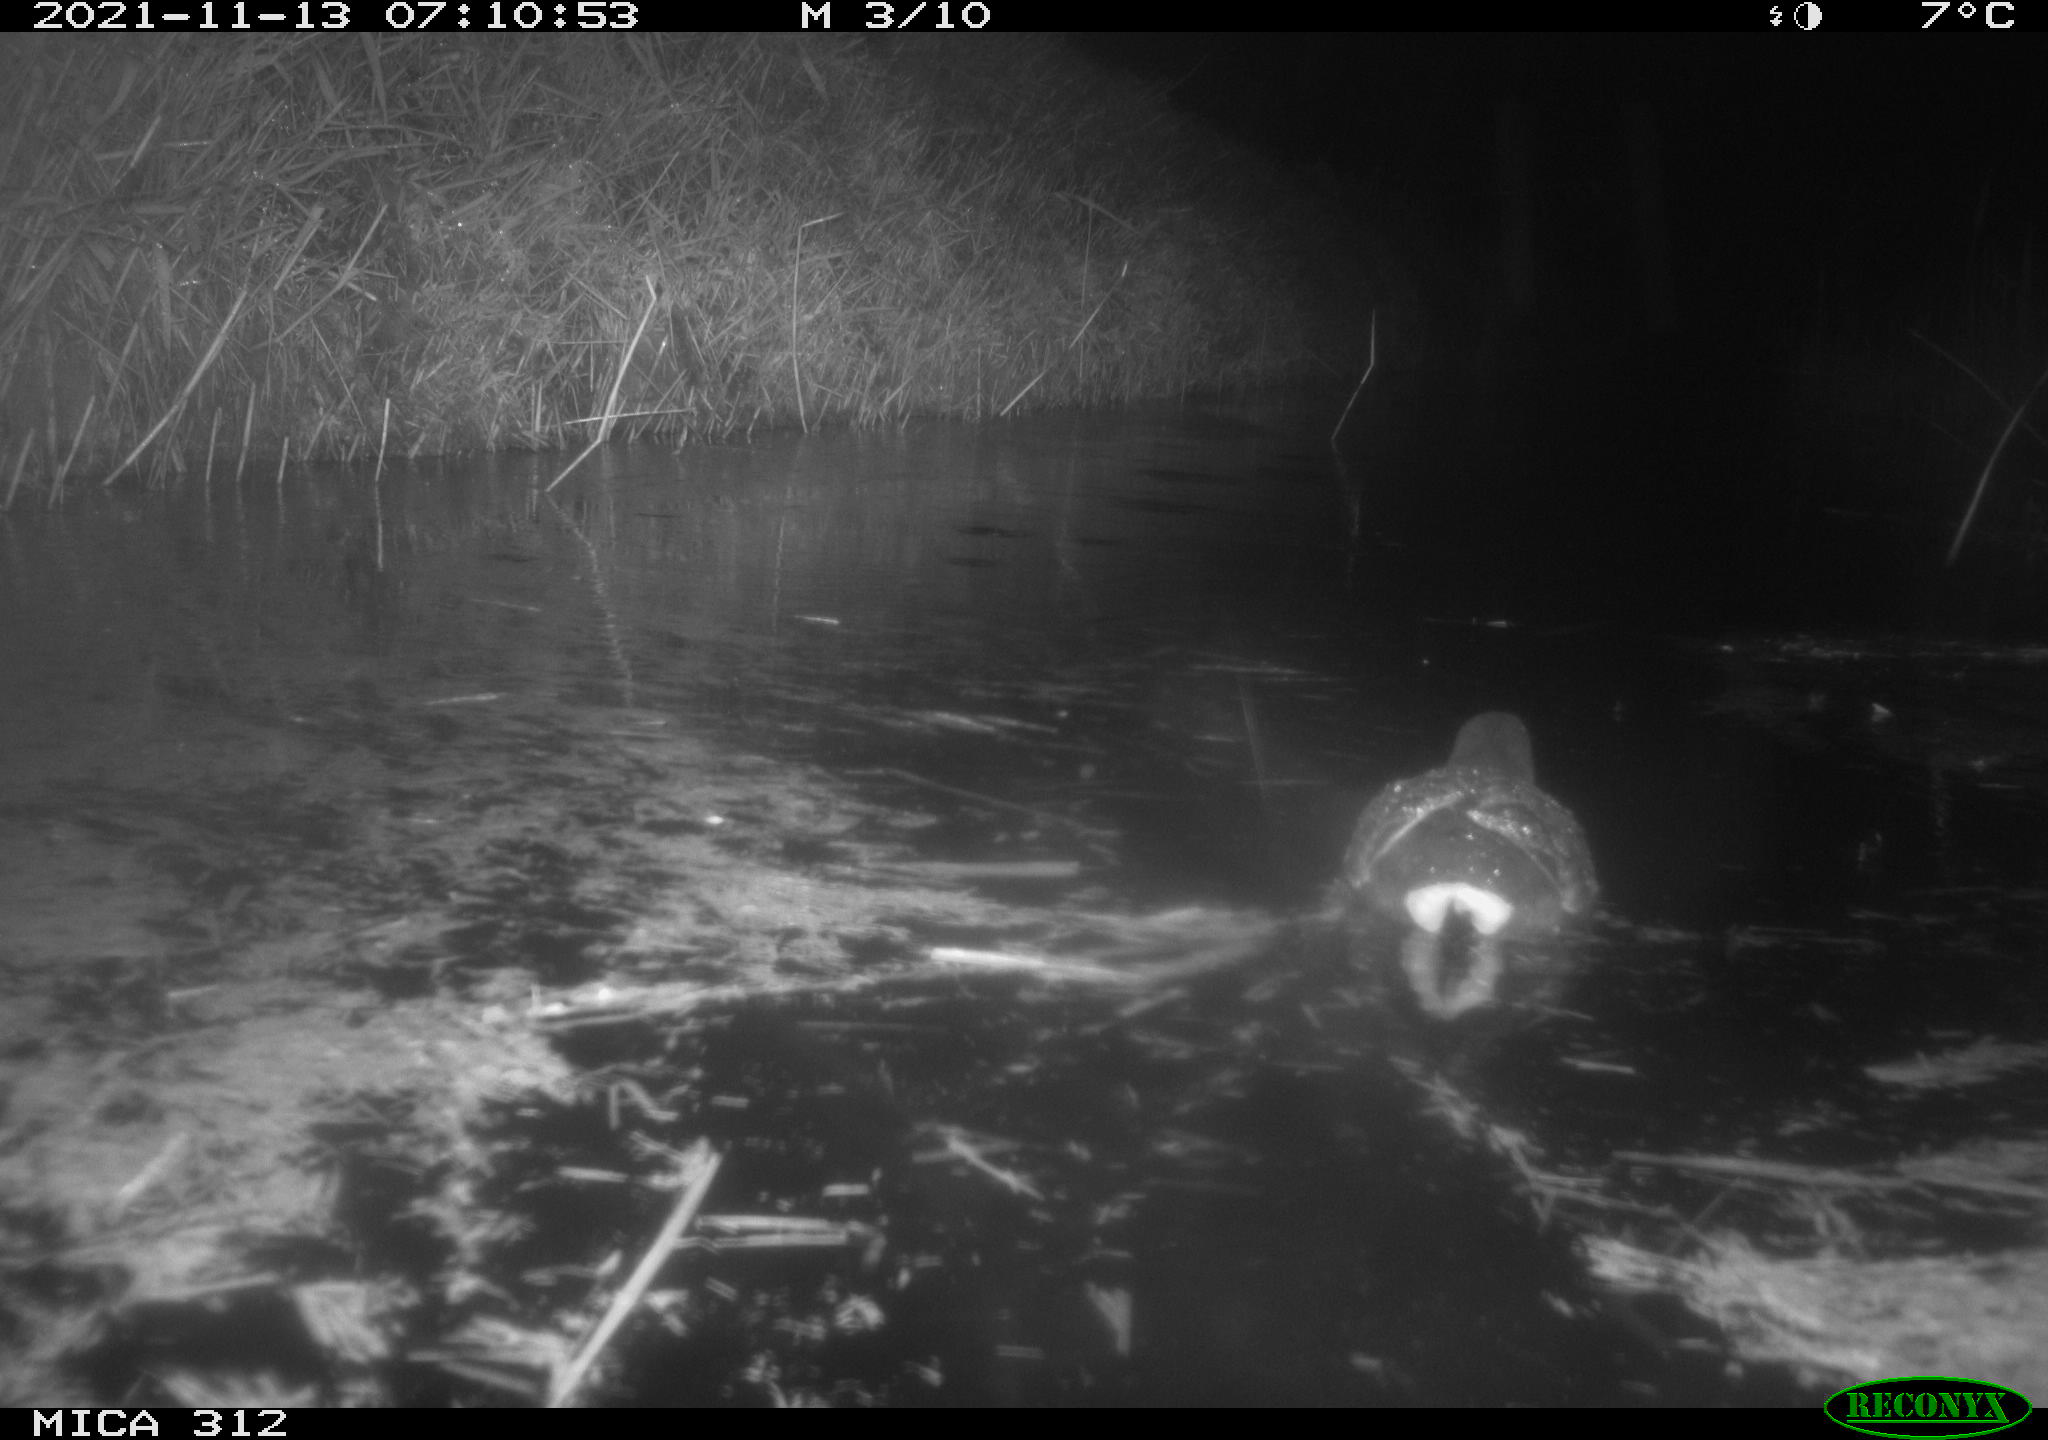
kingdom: Animalia
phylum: Chordata
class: Aves
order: Gruiformes
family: Rallidae
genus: Gallinula
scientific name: Gallinula chloropus
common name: Common moorhen
